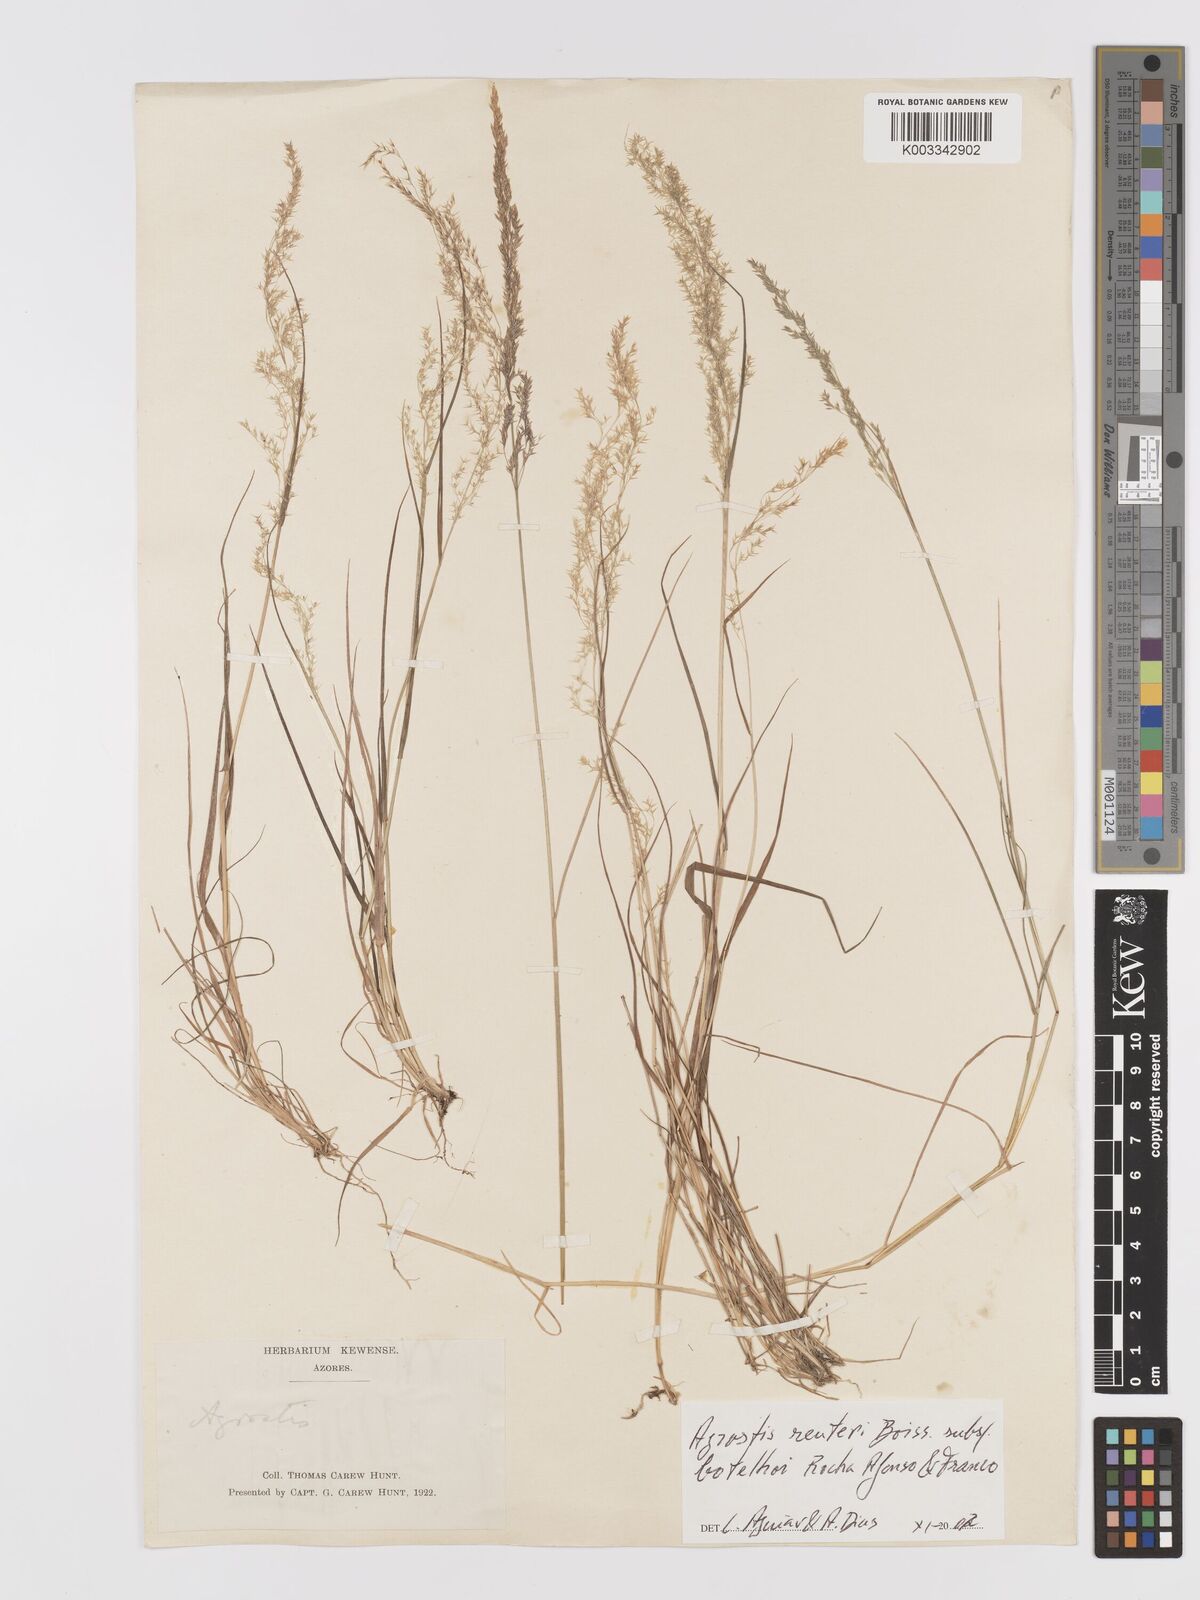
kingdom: Plantae
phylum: Tracheophyta
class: Liliopsida
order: Poales
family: Poaceae
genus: Agrostis
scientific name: Agrostis reuteri
